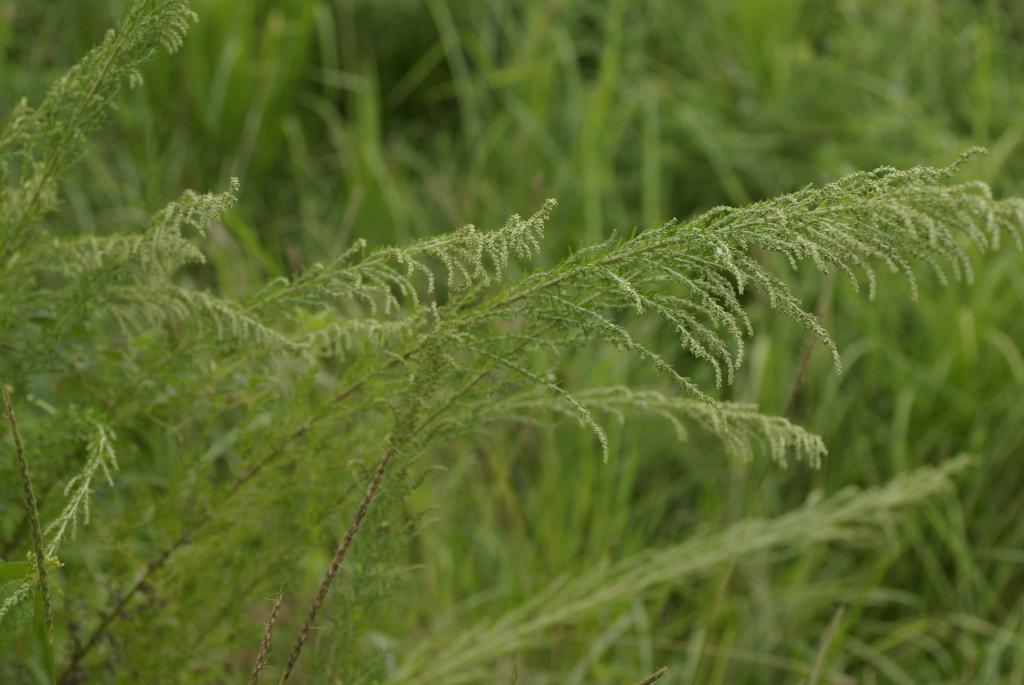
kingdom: Plantae
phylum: Tracheophyta
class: Magnoliopsida
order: Asterales
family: Asteraceae
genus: Artemisia
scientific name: Artemisia lancea
